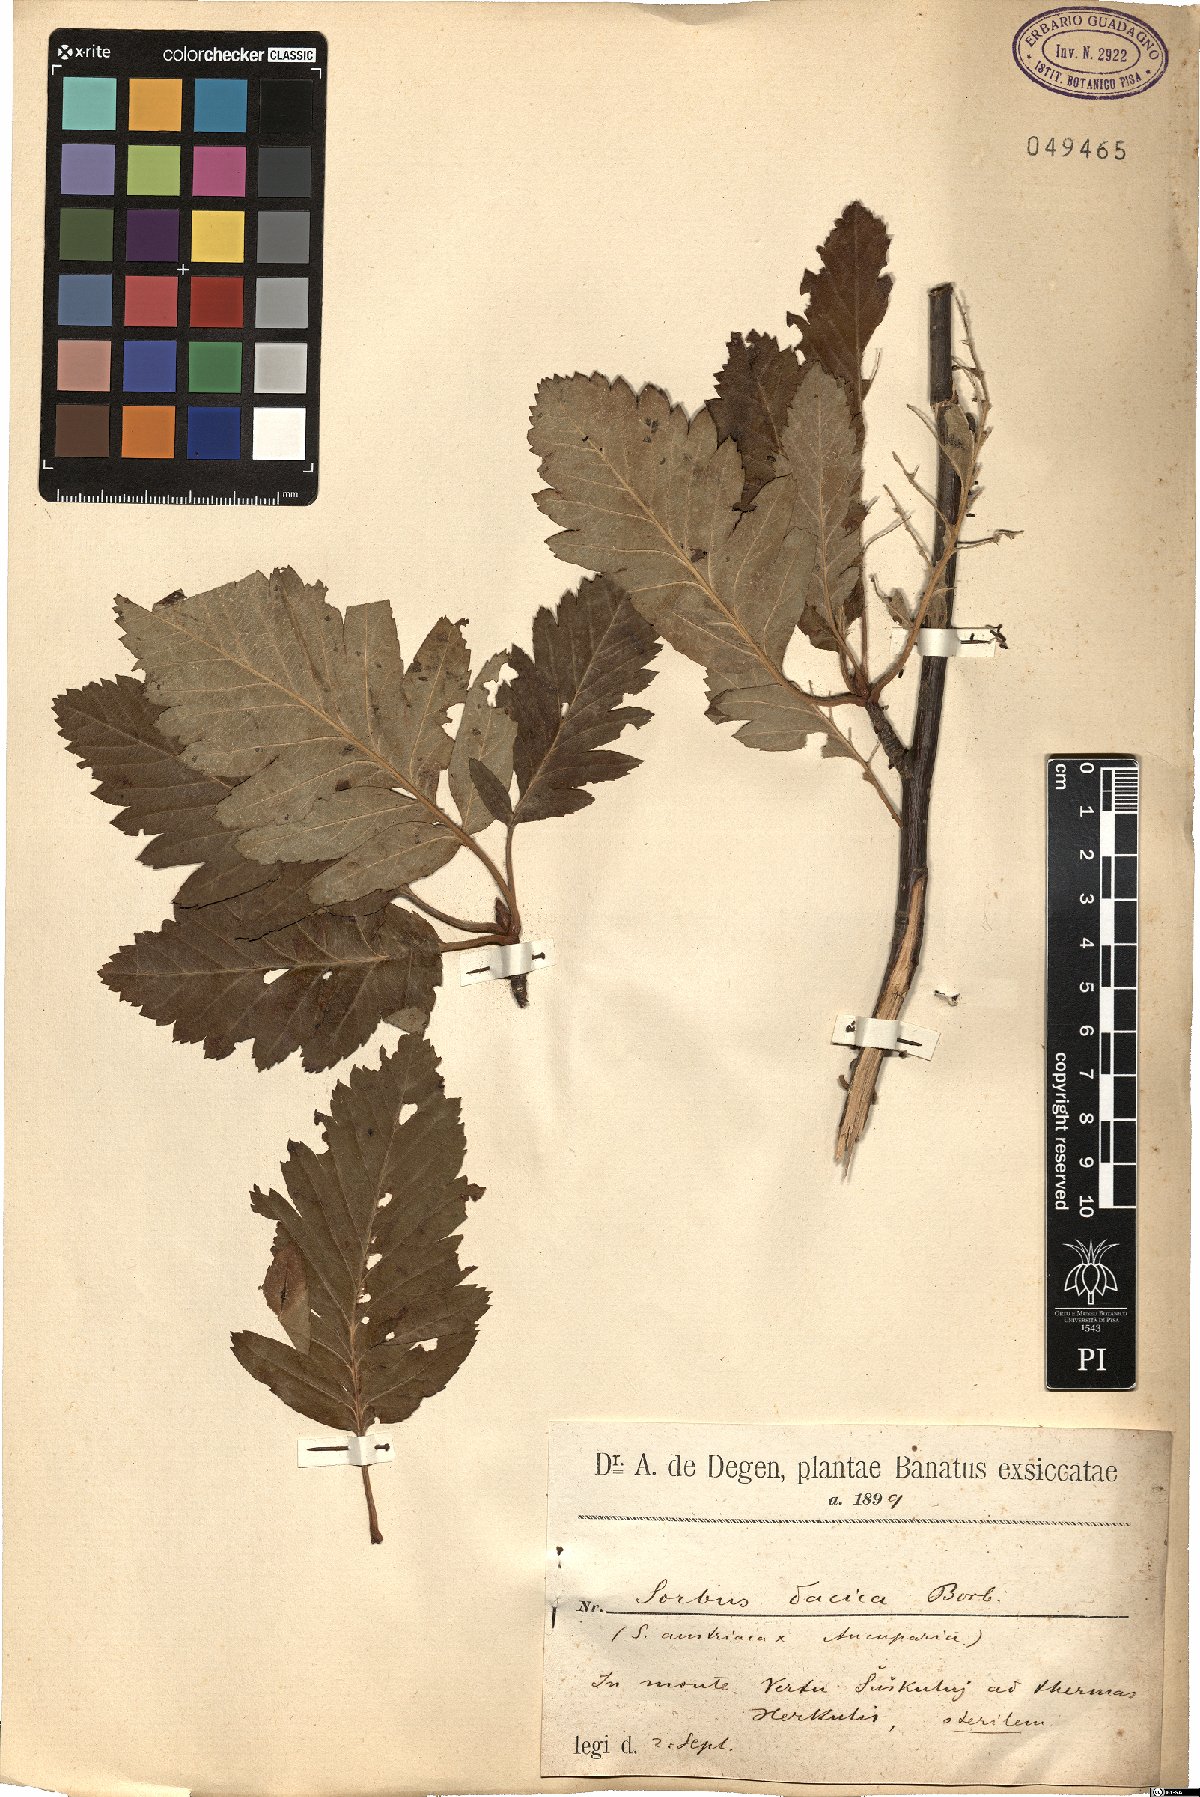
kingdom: Plantae
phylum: Tracheophyta
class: Magnoliopsida
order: Rosales
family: Rosaceae
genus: Hedlundia
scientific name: Hedlundia semipinnata
